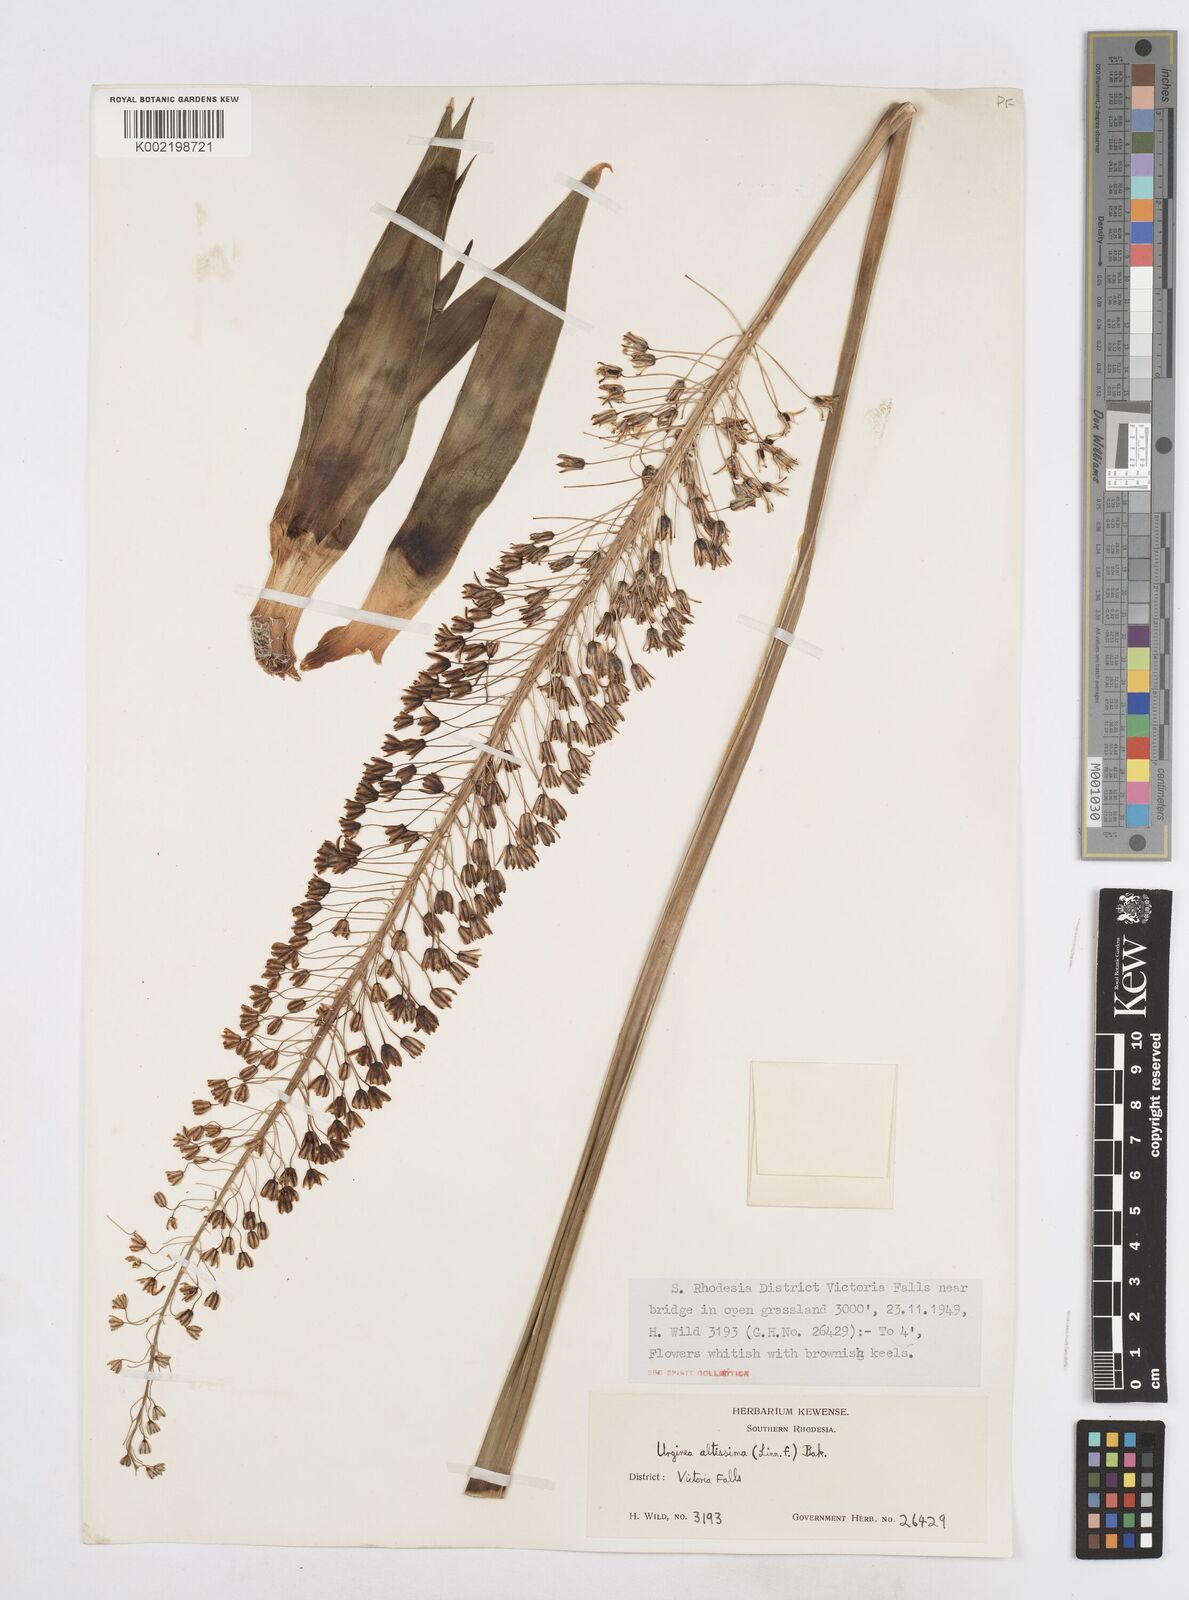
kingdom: Plantae
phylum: Tracheophyta
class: Liliopsida
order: Asparagales
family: Asparagaceae
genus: Drimia
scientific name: Drimia
